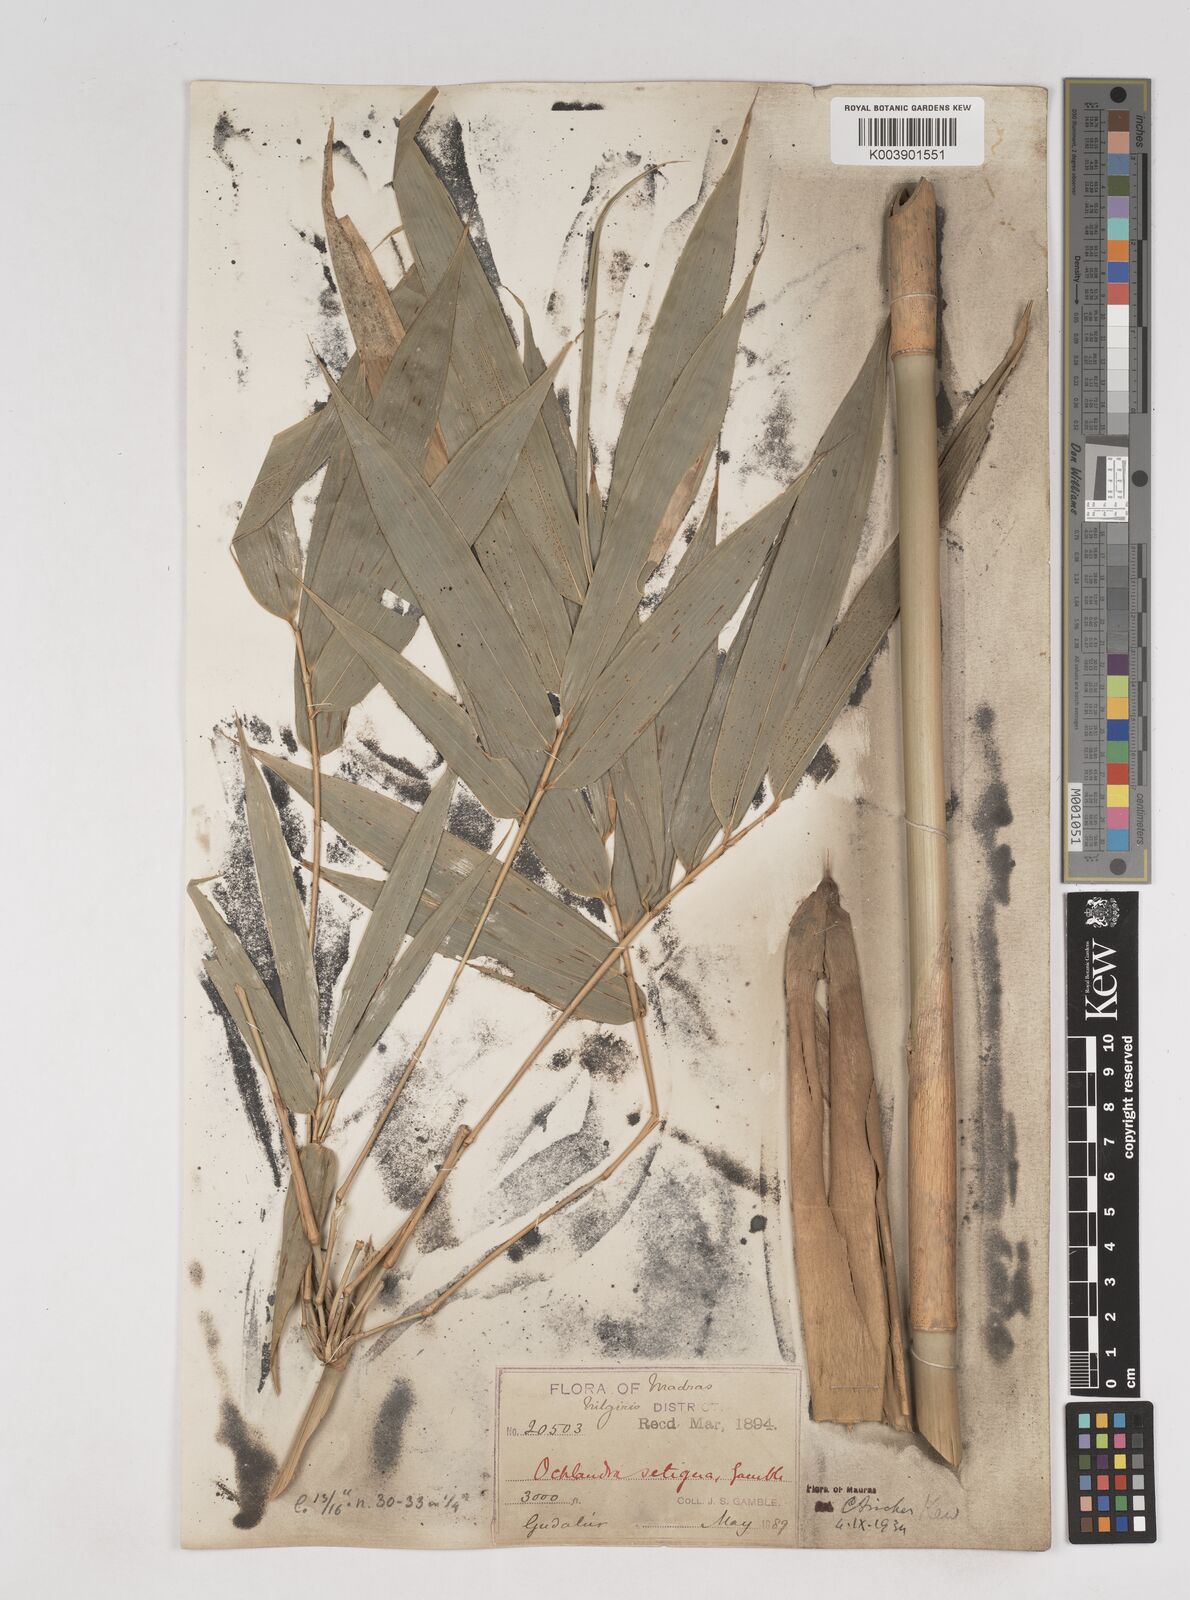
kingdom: Plantae
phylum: Tracheophyta
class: Liliopsida
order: Poales
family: Poaceae
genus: Ochlandra
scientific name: Ochlandra setigera
